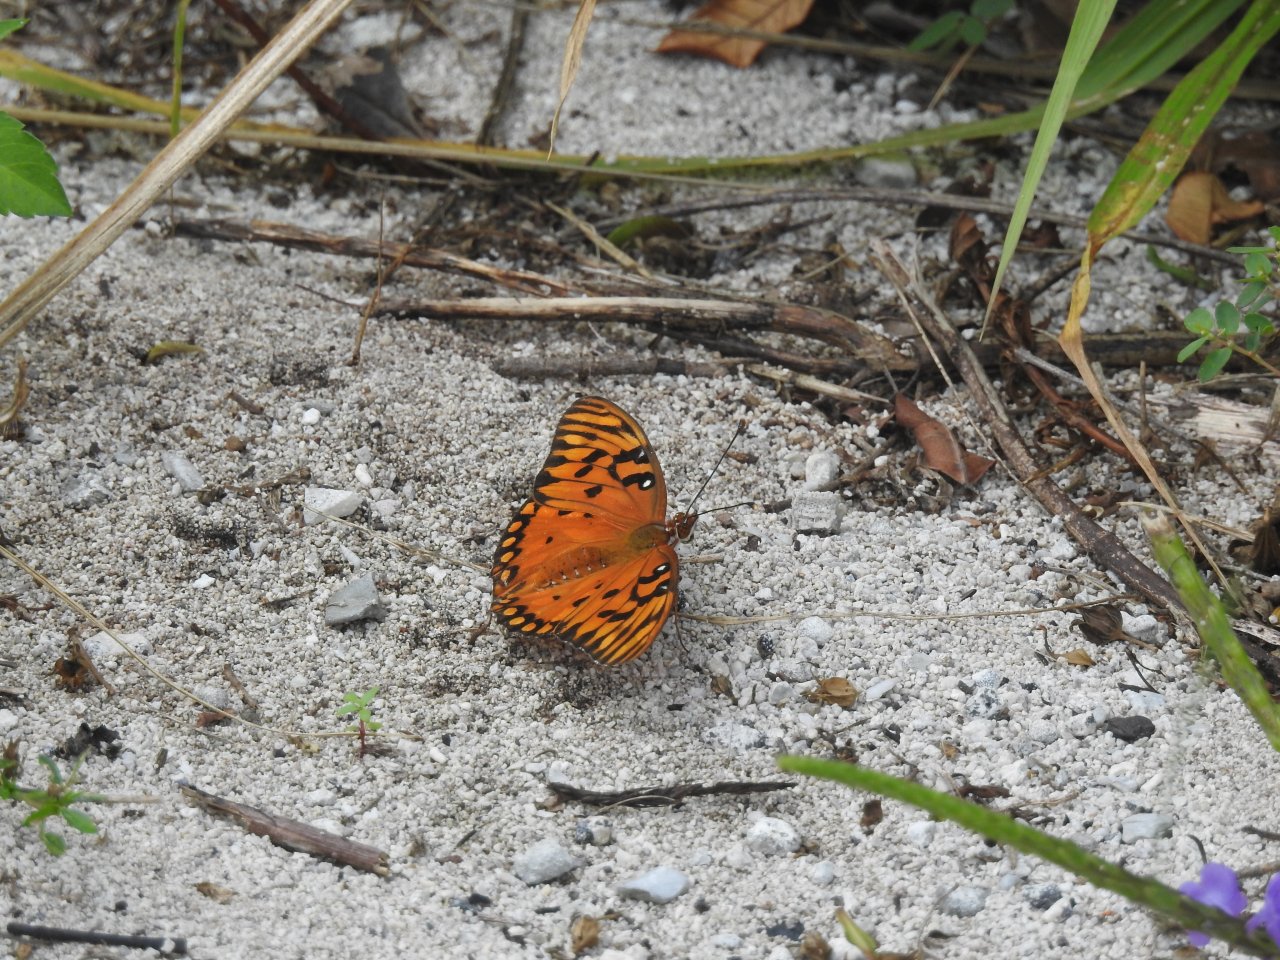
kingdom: Animalia
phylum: Arthropoda
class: Insecta
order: Lepidoptera
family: Nymphalidae
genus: Dione
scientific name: Dione vanillae
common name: Gulf Fritillary
